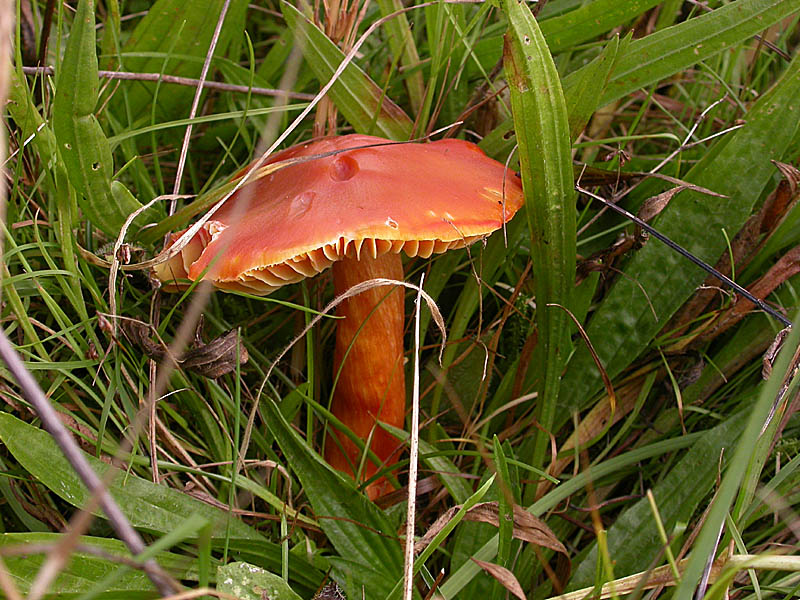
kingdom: Fungi
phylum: Basidiomycota
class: Agaricomycetes
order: Agaricales
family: Hygrophoraceae
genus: Hygrocybe
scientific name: Hygrocybe punicea
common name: skarlagen-vokshat
